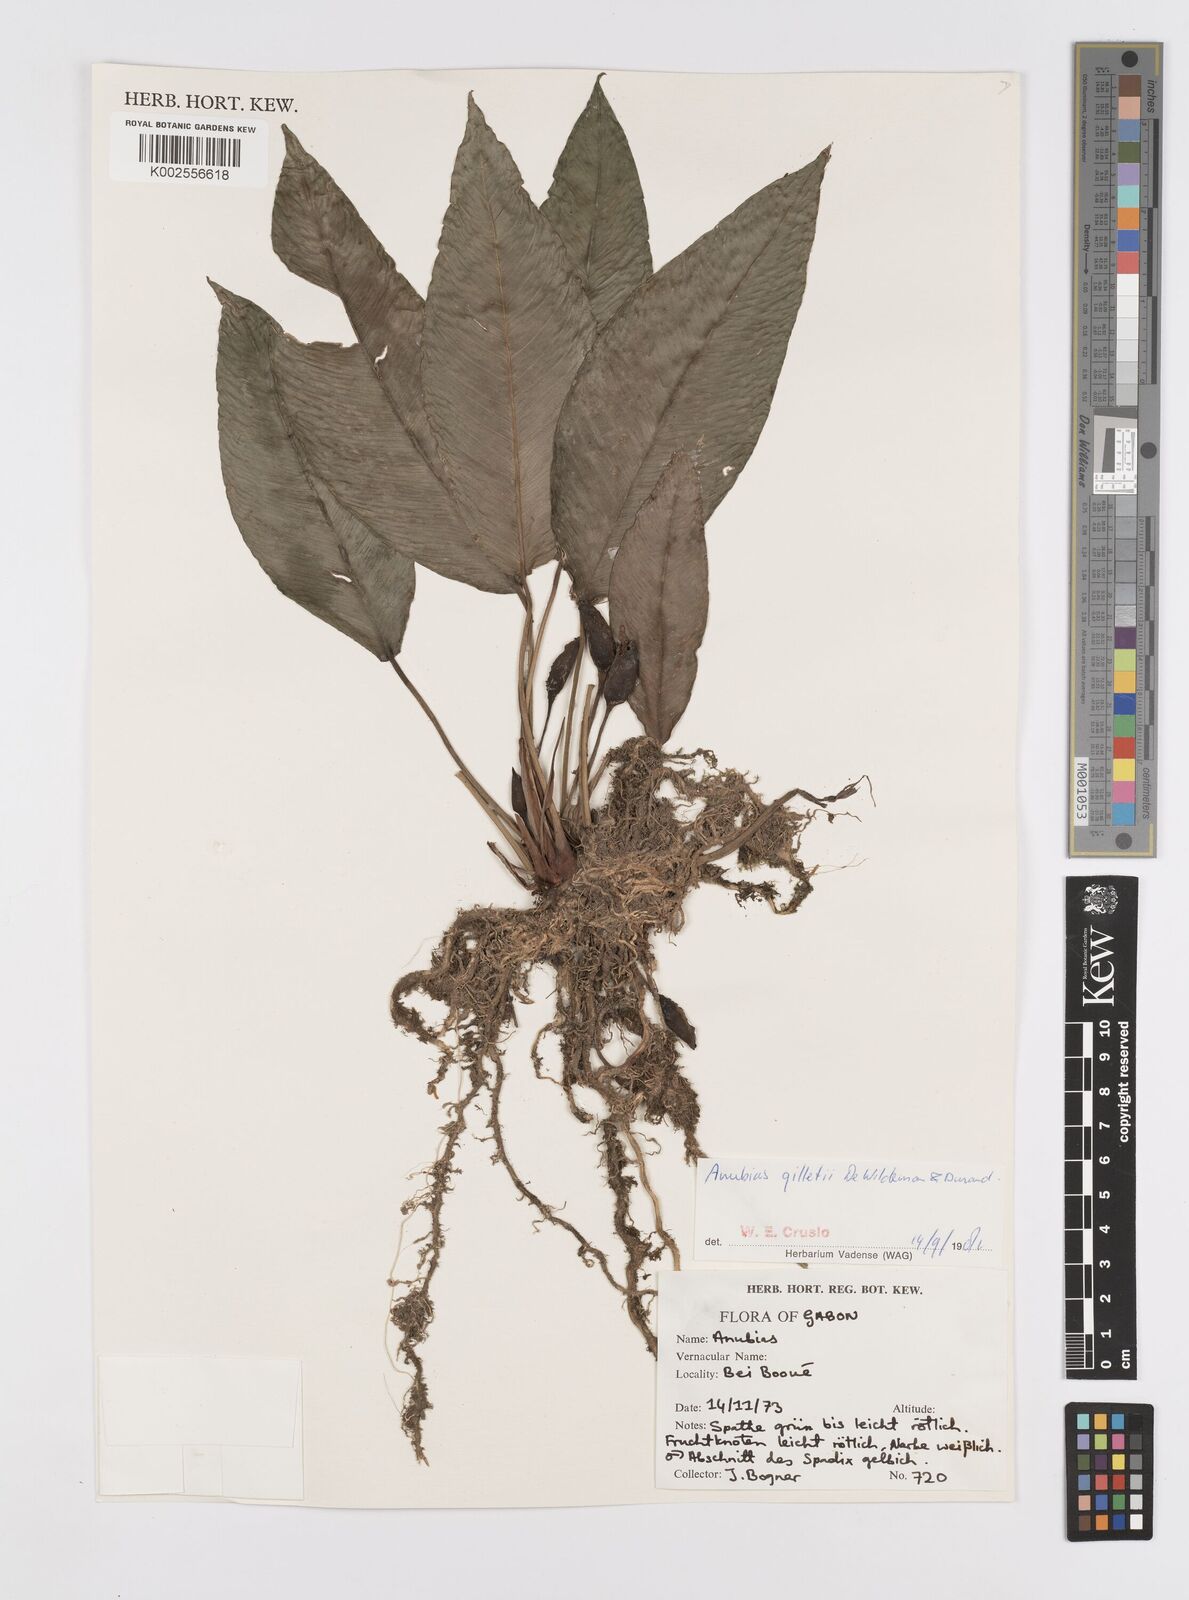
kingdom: Plantae
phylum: Tracheophyta
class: Liliopsida
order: Alismatales
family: Araceae
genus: Anubias
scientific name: Anubias gilletii
